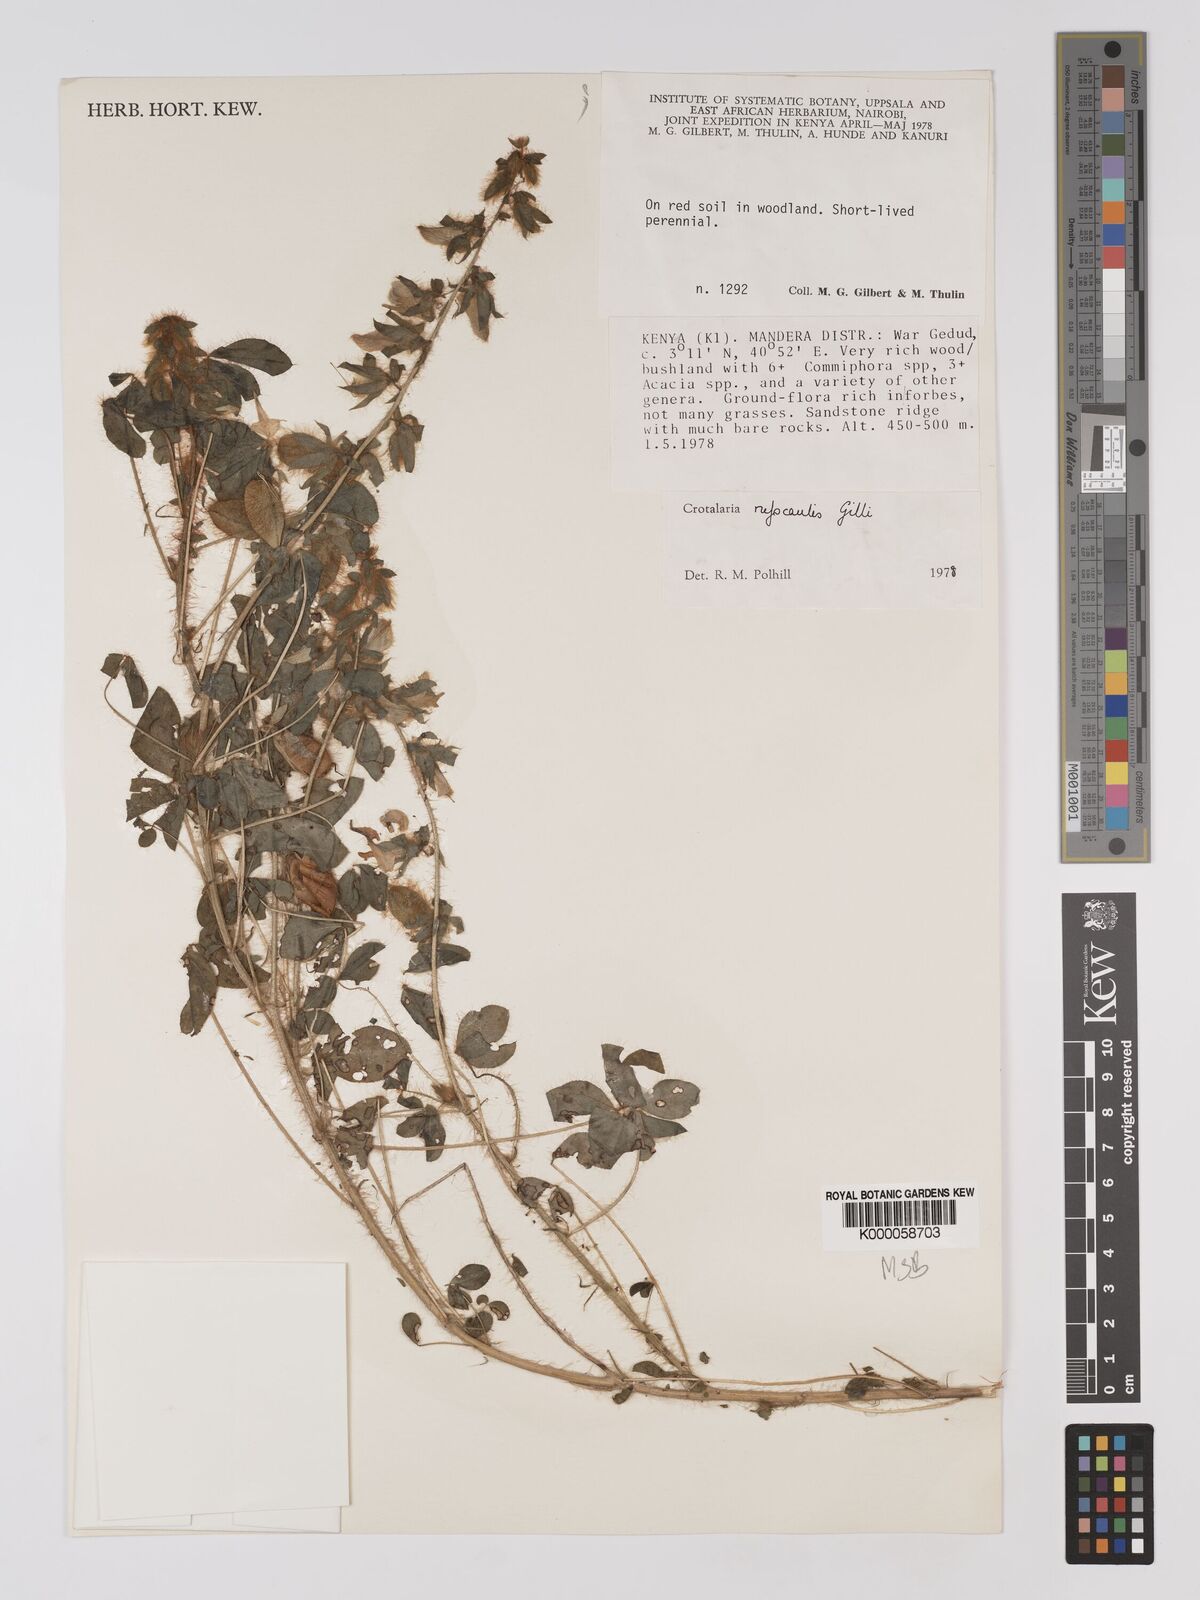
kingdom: Plantae
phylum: Tracheophyta
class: Magnoliopsida
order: Fabales
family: Fabaceae
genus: Crotalaria
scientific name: Crotalaria rufocaulis
